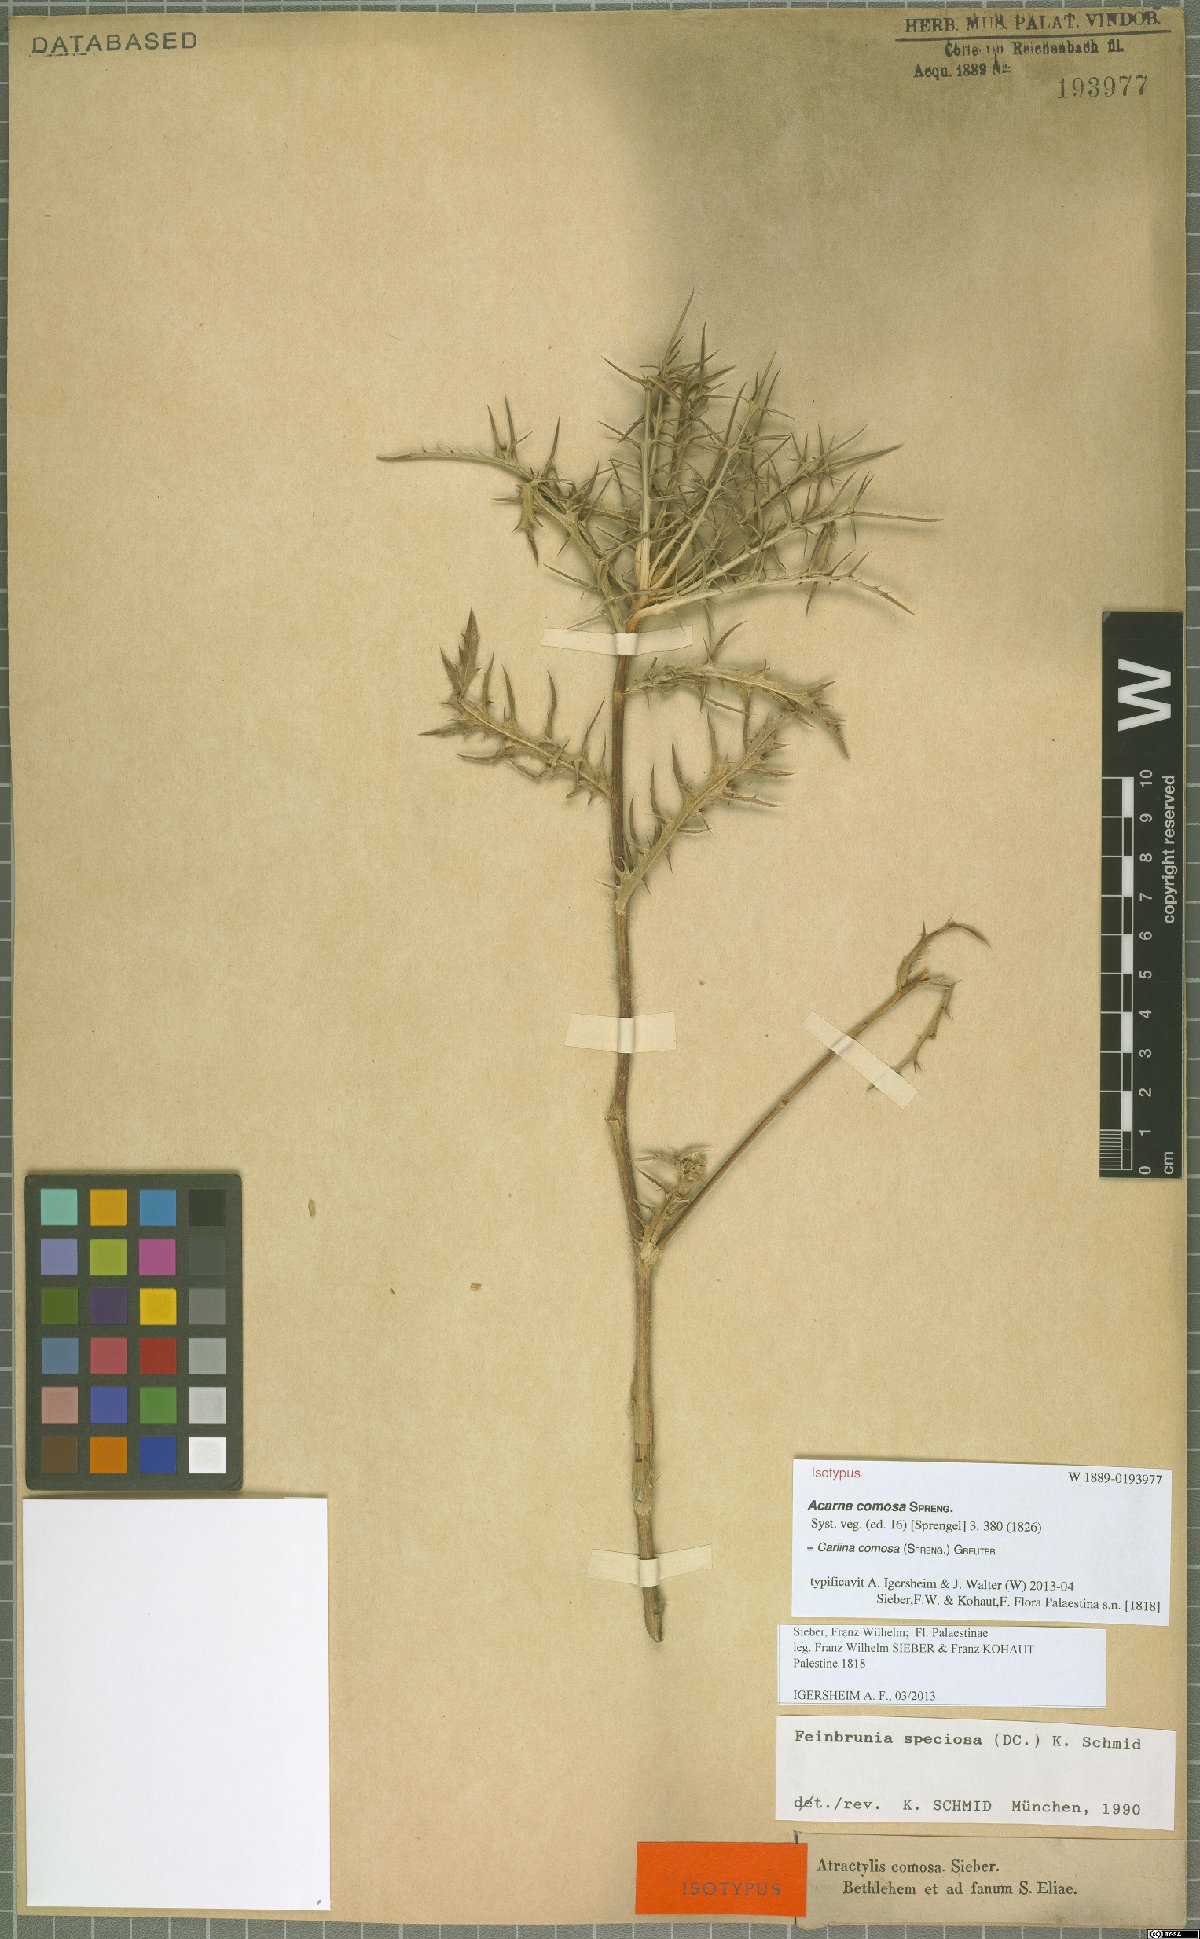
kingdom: Plantae
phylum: Tracheophyta
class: Magnoliopsida
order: Asterales
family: Asteraceae
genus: Chamaeleon
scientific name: Chamaeleon comosus
